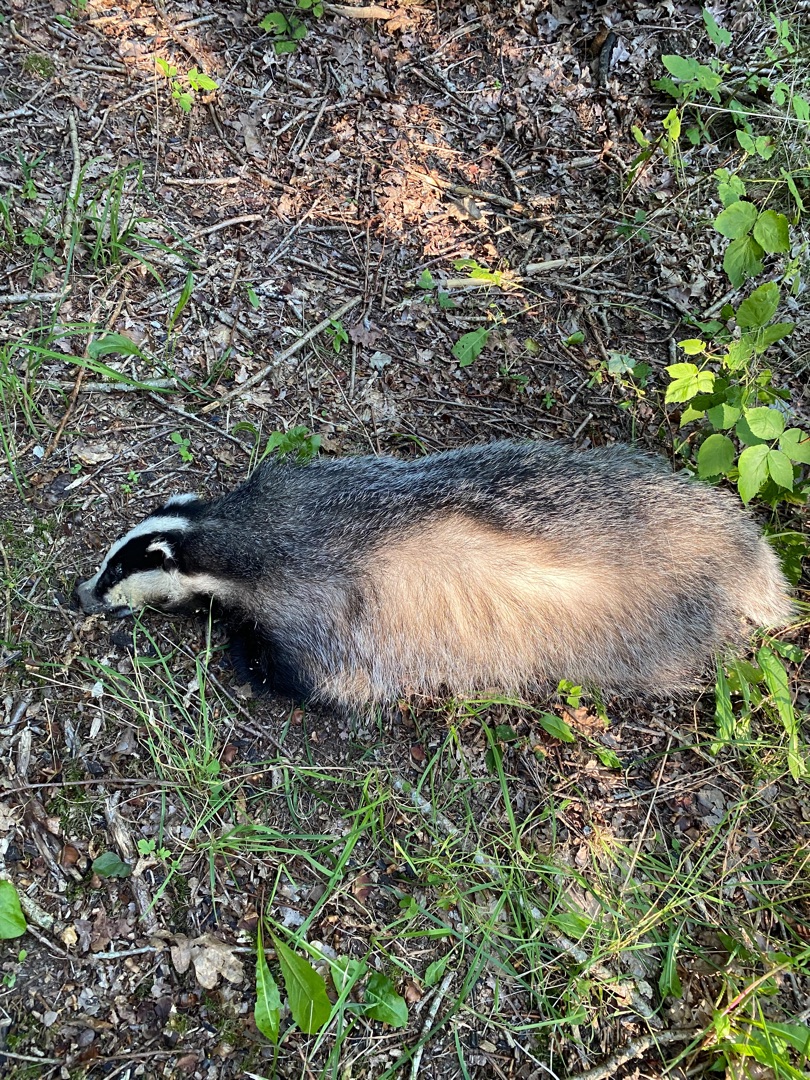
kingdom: Animalia
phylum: Chordata
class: Mammalia
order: Carnivora
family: Mustelidae
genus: Meles
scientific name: Meles meles
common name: Grævling
